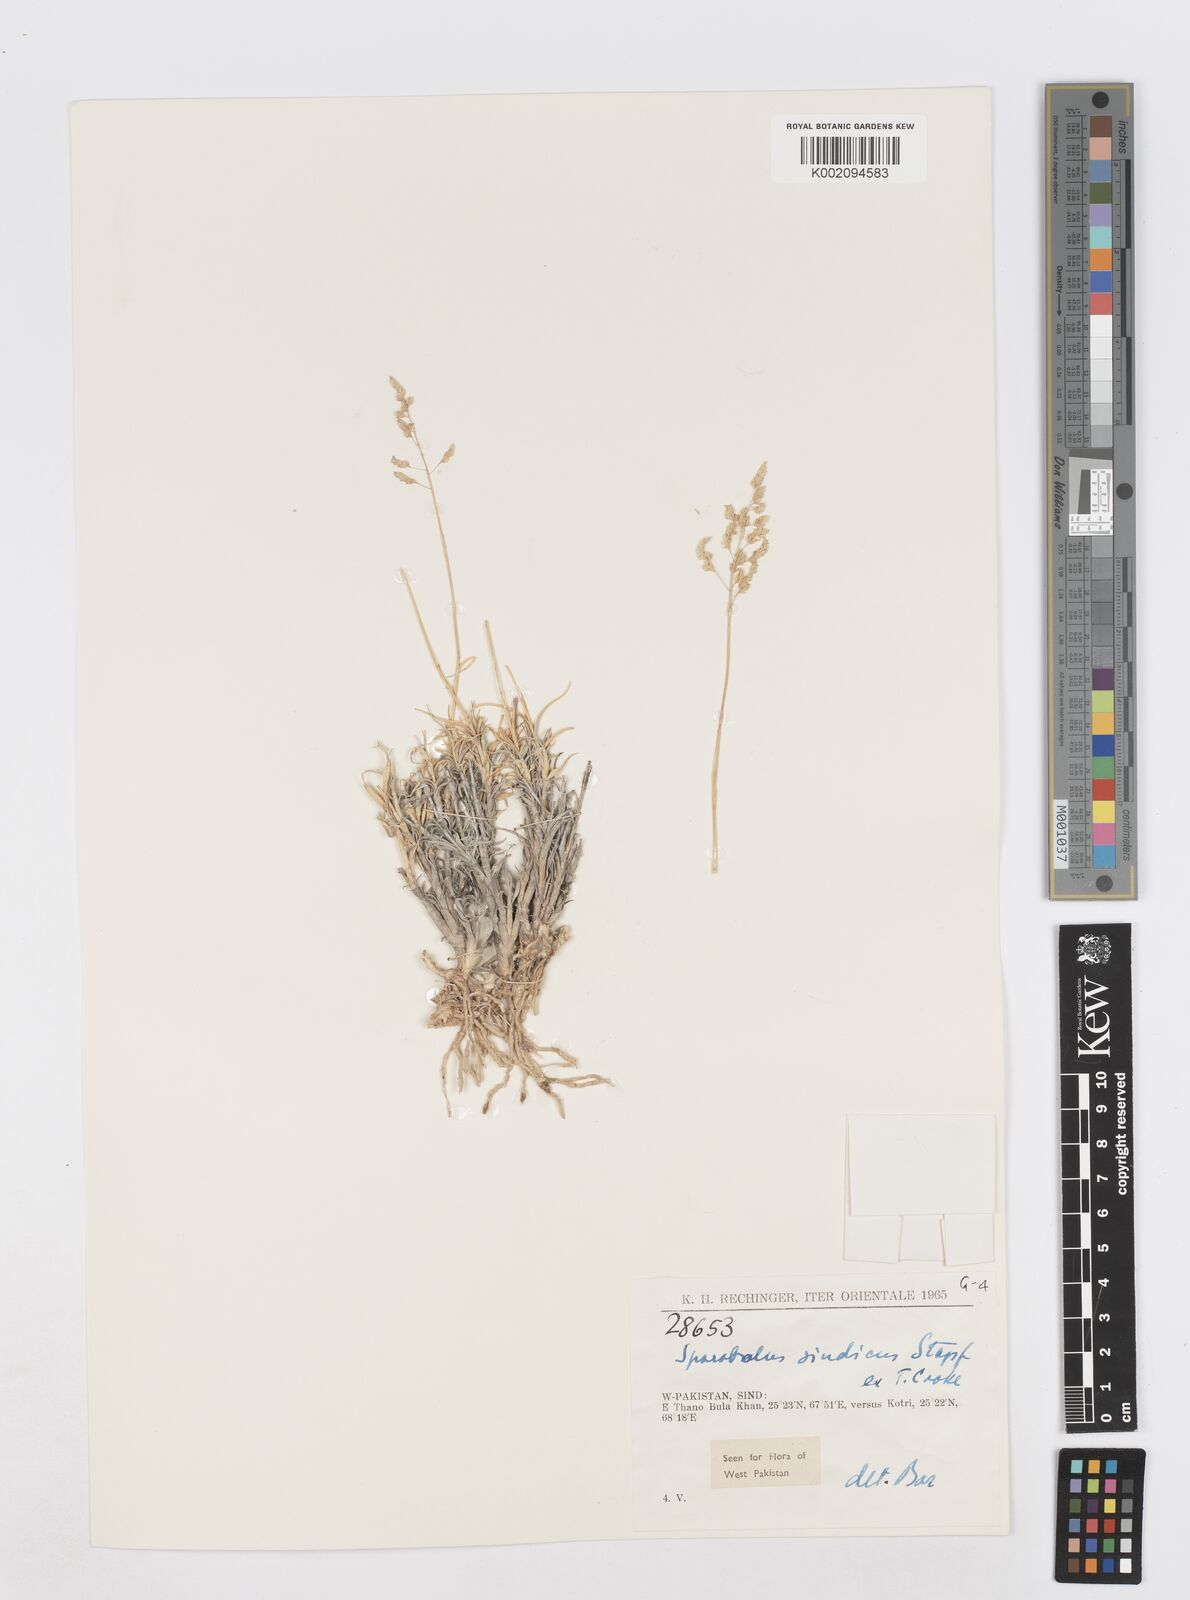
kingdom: Plantae
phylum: Tracheophyta
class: Liliopsida
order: Poales
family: Poaceae
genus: Sporobolus
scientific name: Sporobolus tourneuxii
